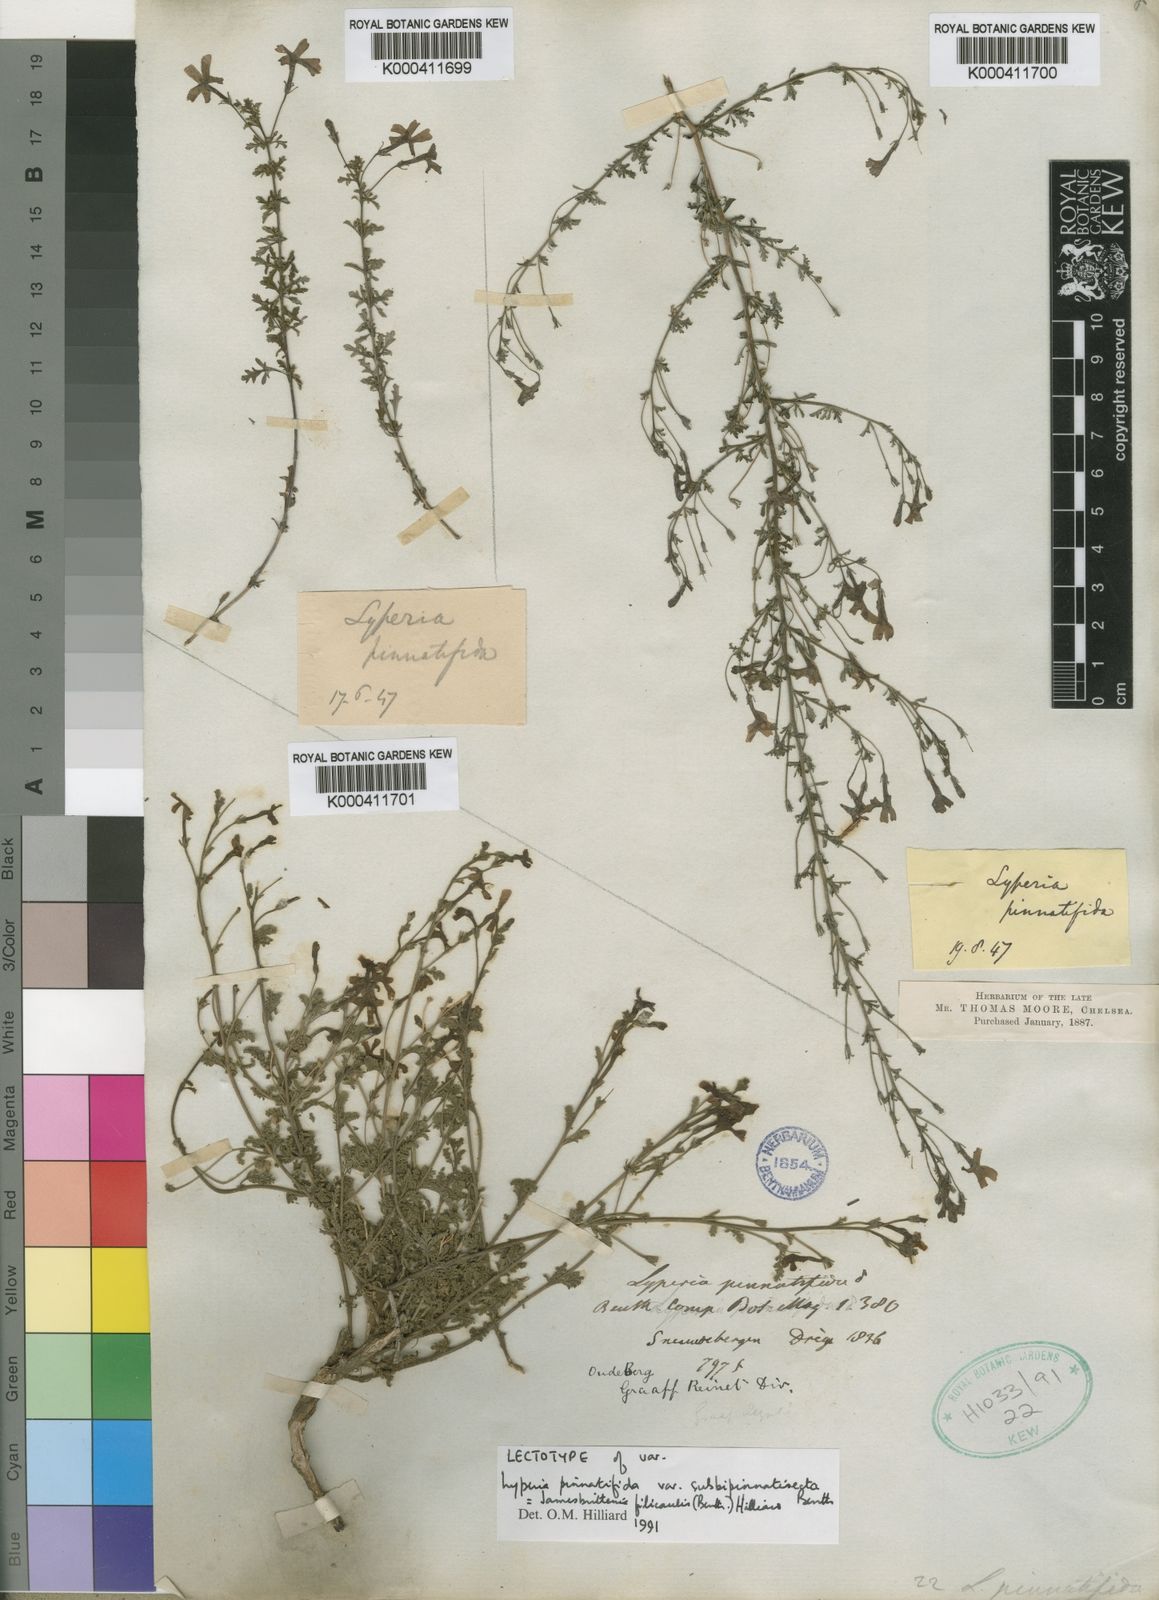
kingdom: Plantae
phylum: Tracheophyta
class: Magnoliopsida
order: Lamiales
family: Scrophulariaceae
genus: Jamesbrittenia
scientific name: Jamesbrittenia filicaulis
